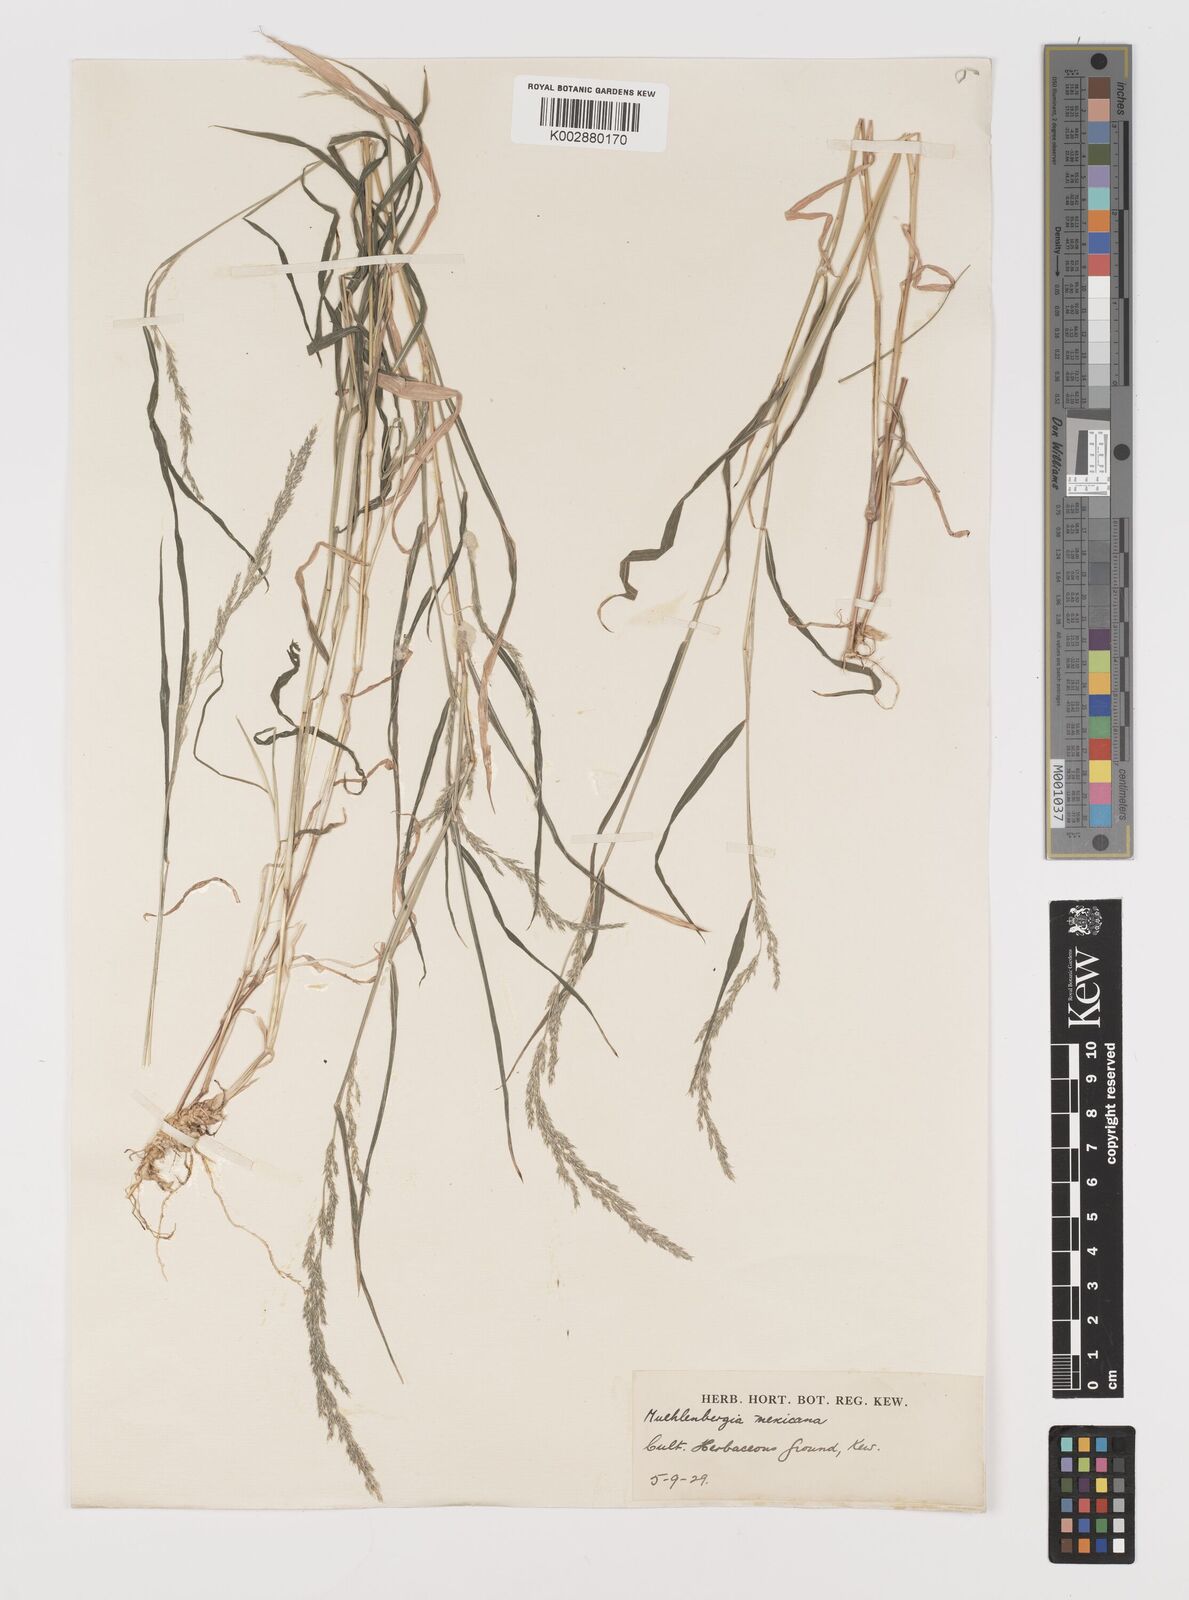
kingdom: Plantae
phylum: Tracheophyta
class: Liliopsida
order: Poales
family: Poaceae
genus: Muhlenbergia
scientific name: Muhlenbergia mexicana
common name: Mexican muhly
